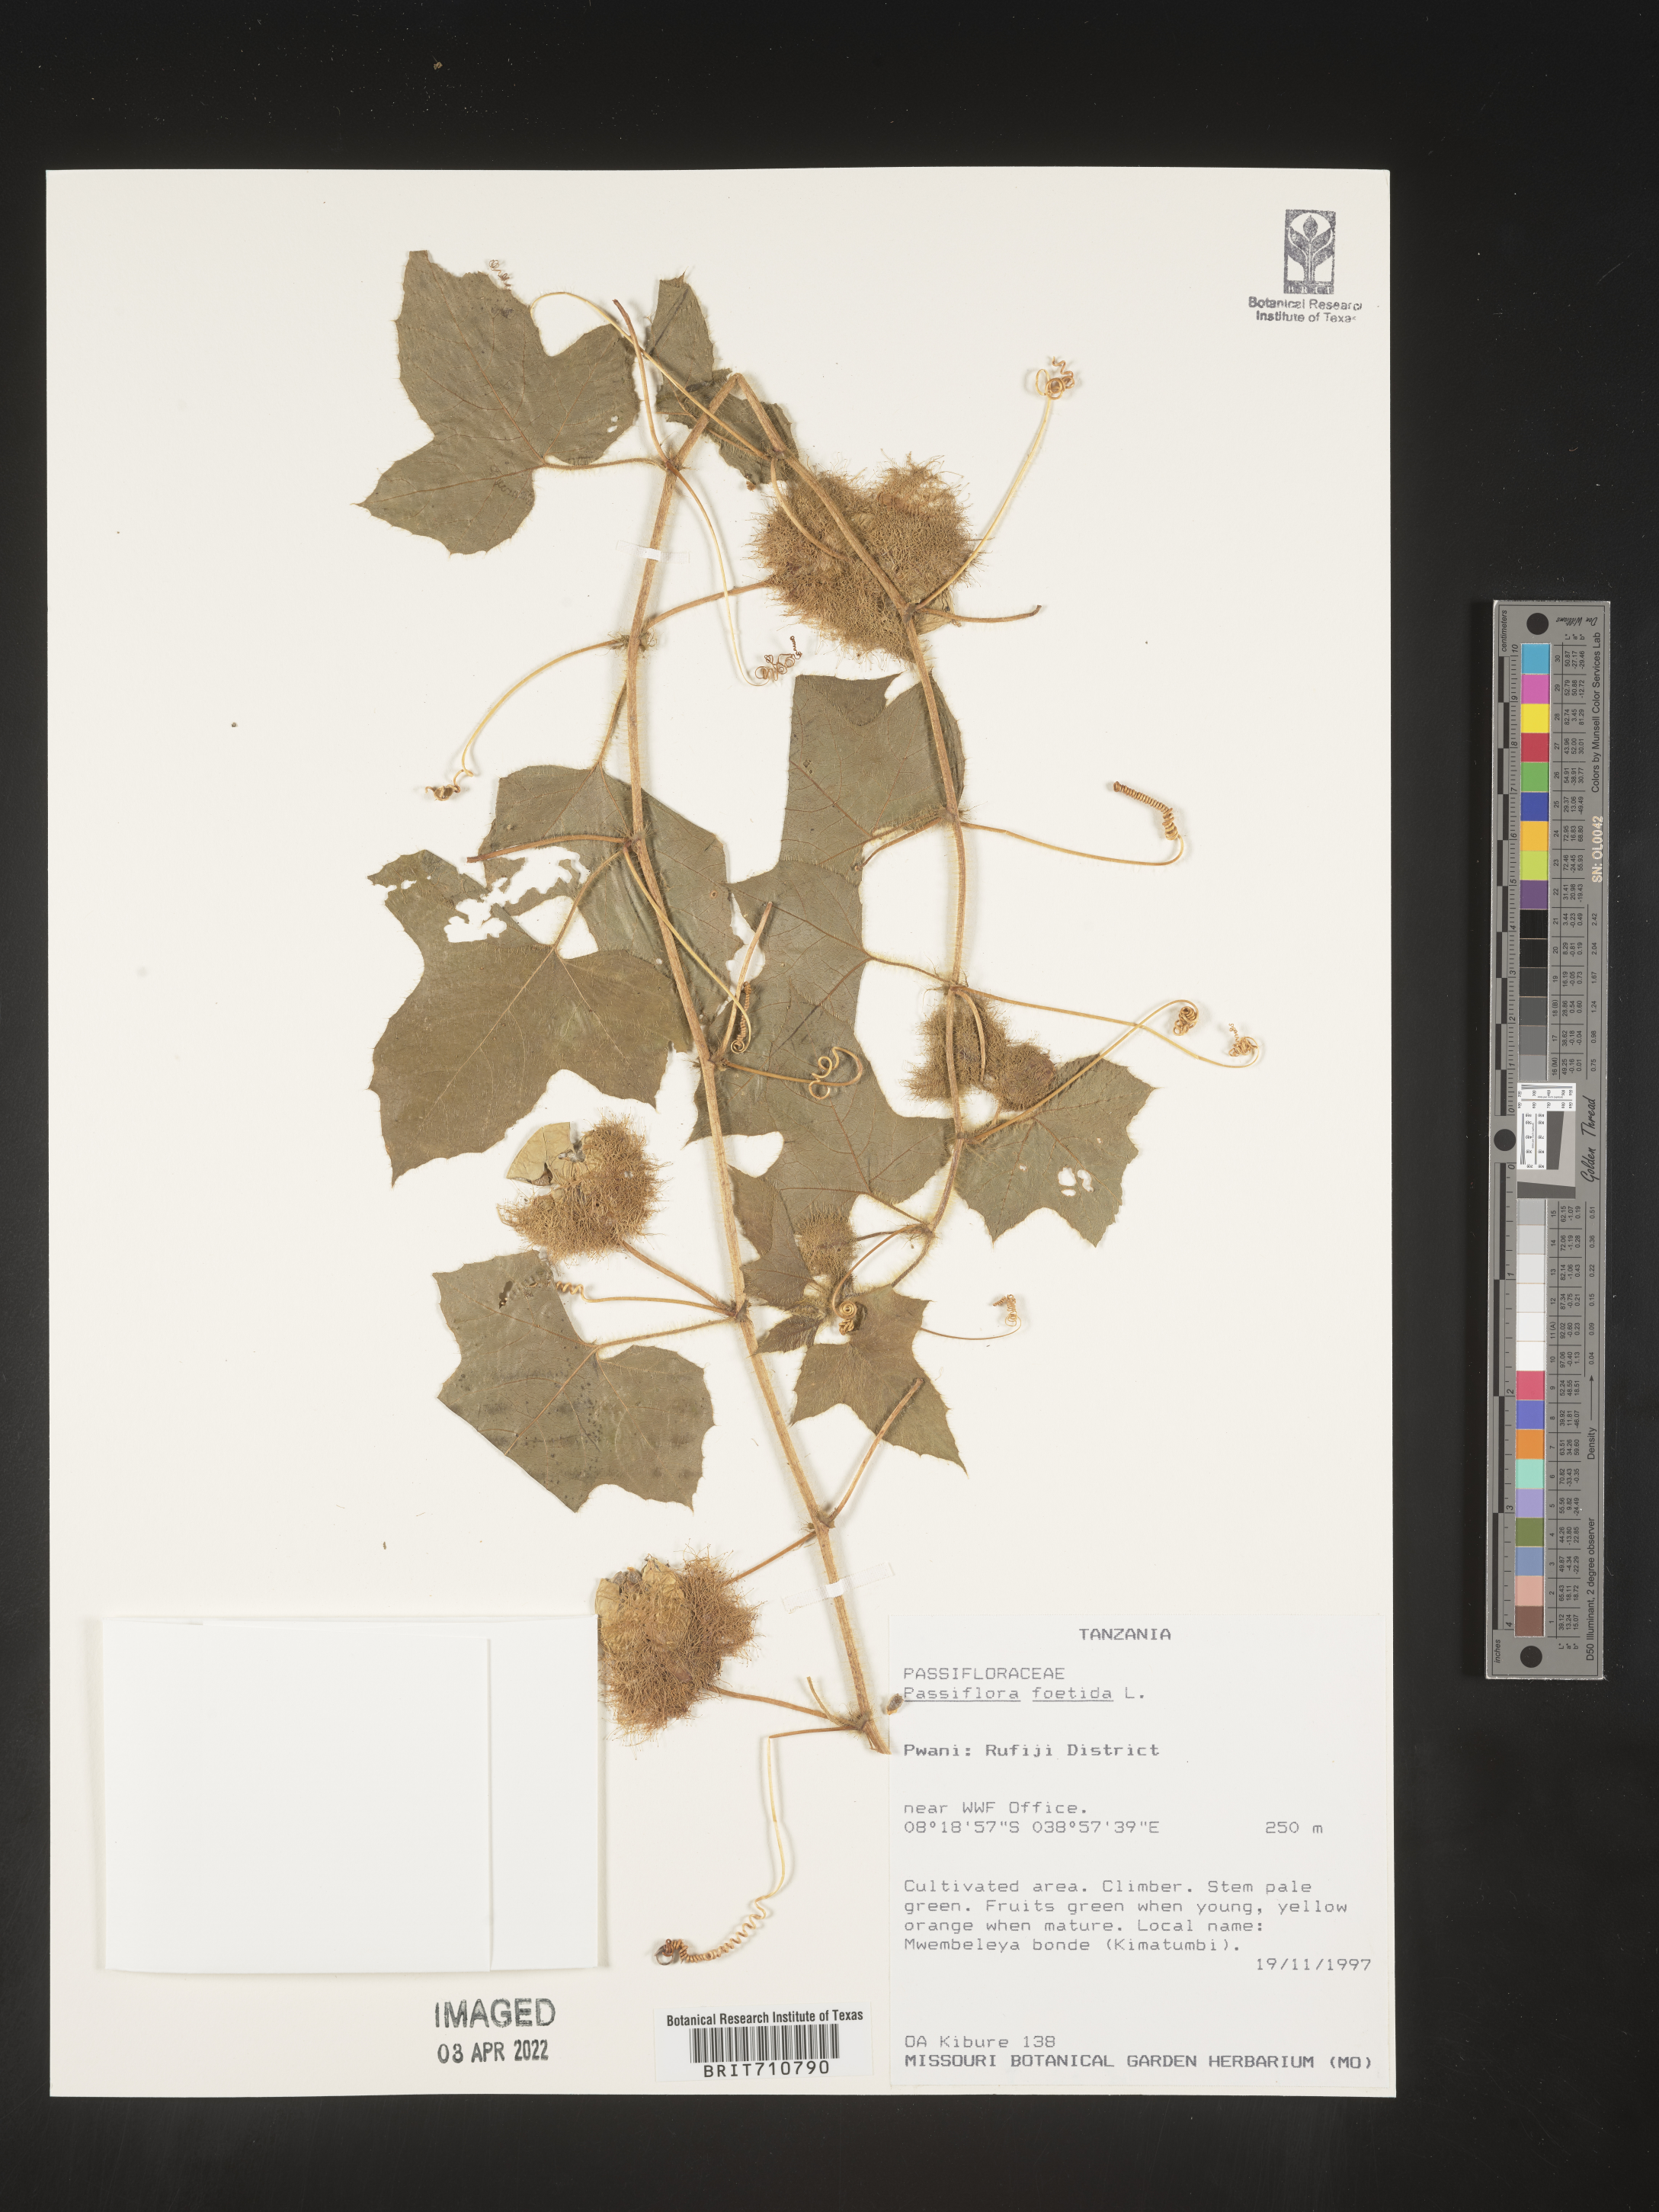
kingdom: Plantae
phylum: Tracheophyta
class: Magnoliopsida
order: Malpighiales
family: Passifloraceae
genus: Passiflora
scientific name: Passiflora
